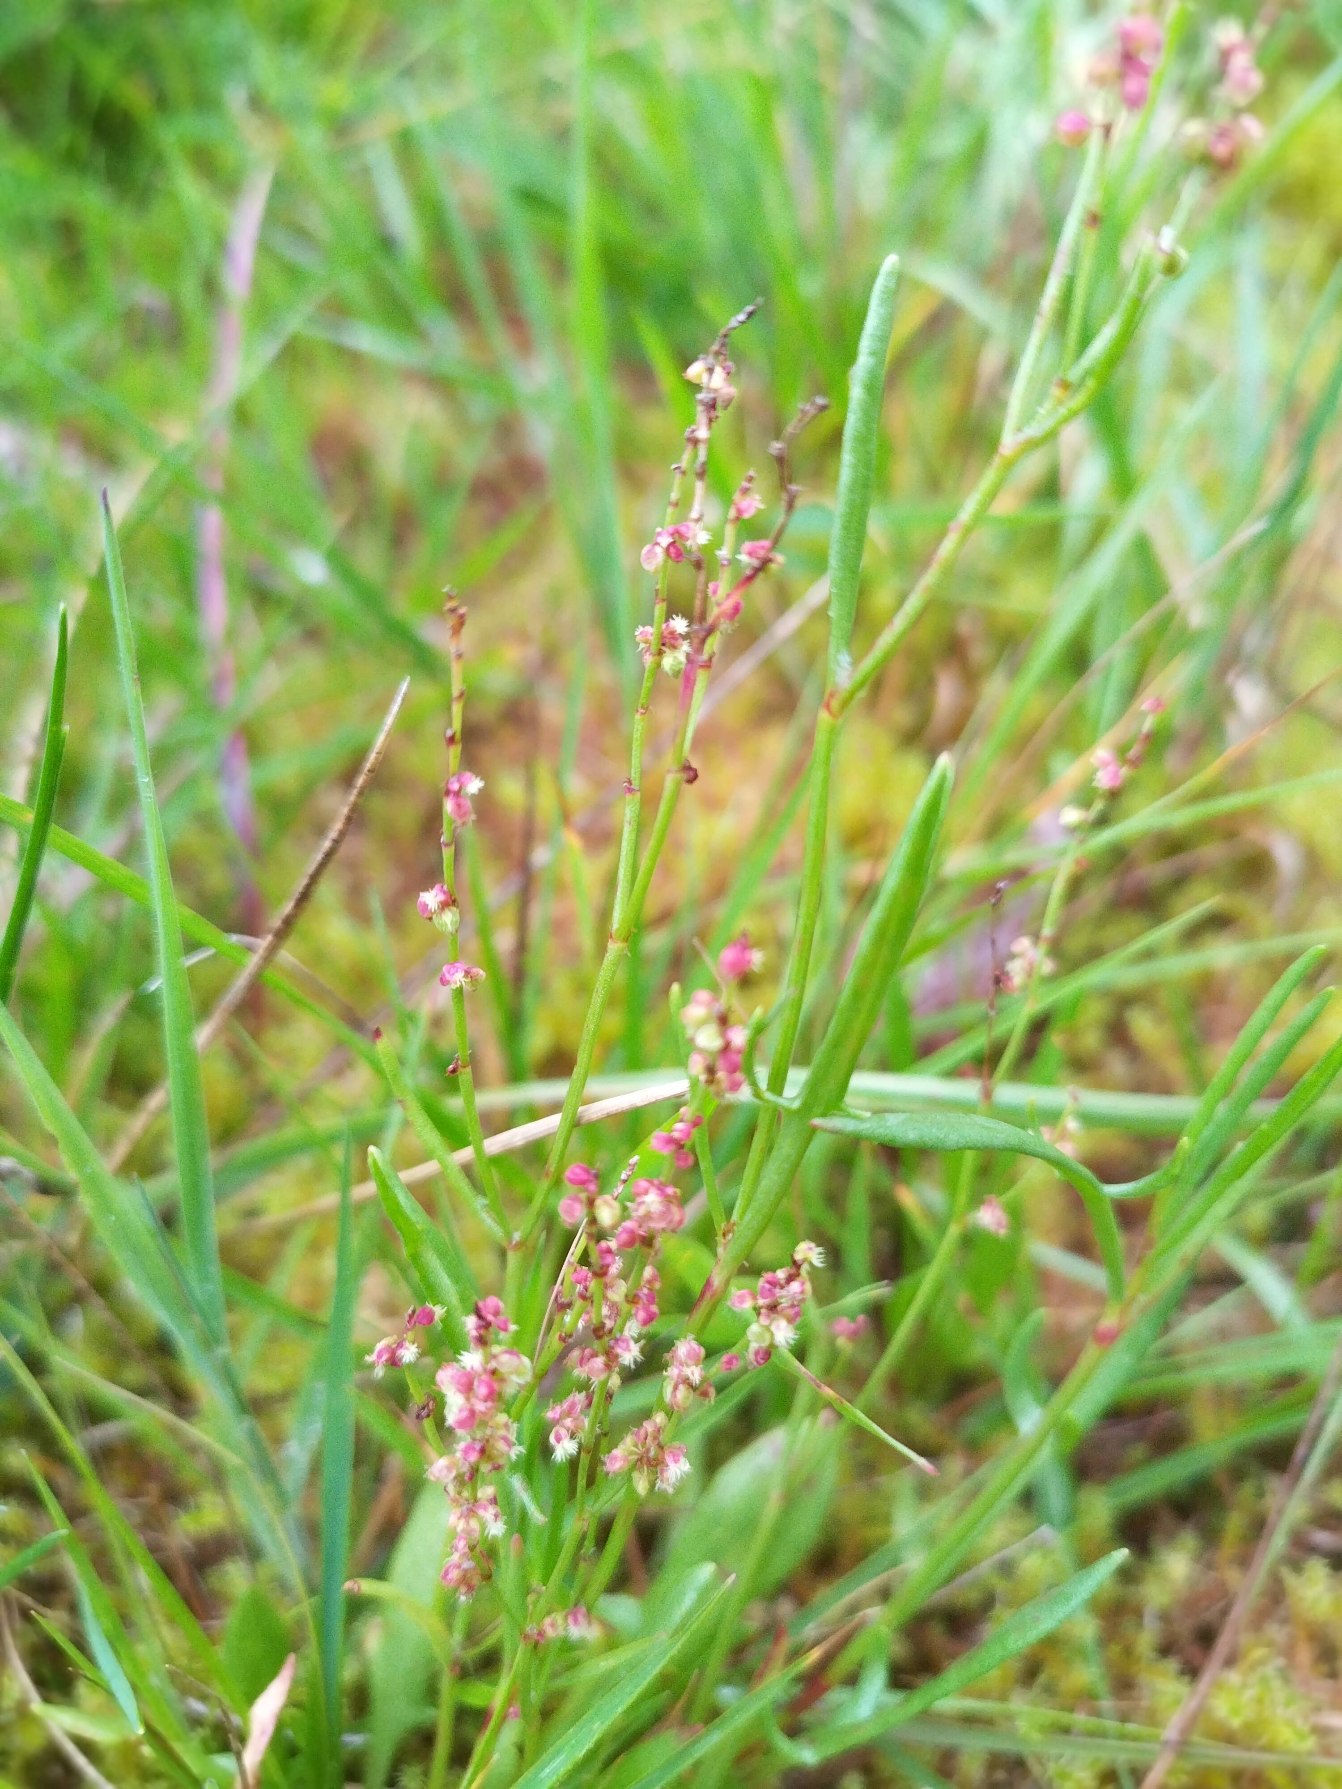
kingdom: Plantae
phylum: Tracheophyta
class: Magnoliopsida
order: Caryophyllales
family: Polygonaceae
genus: Rumex
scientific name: Rumex acetosella
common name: Rødknæ
